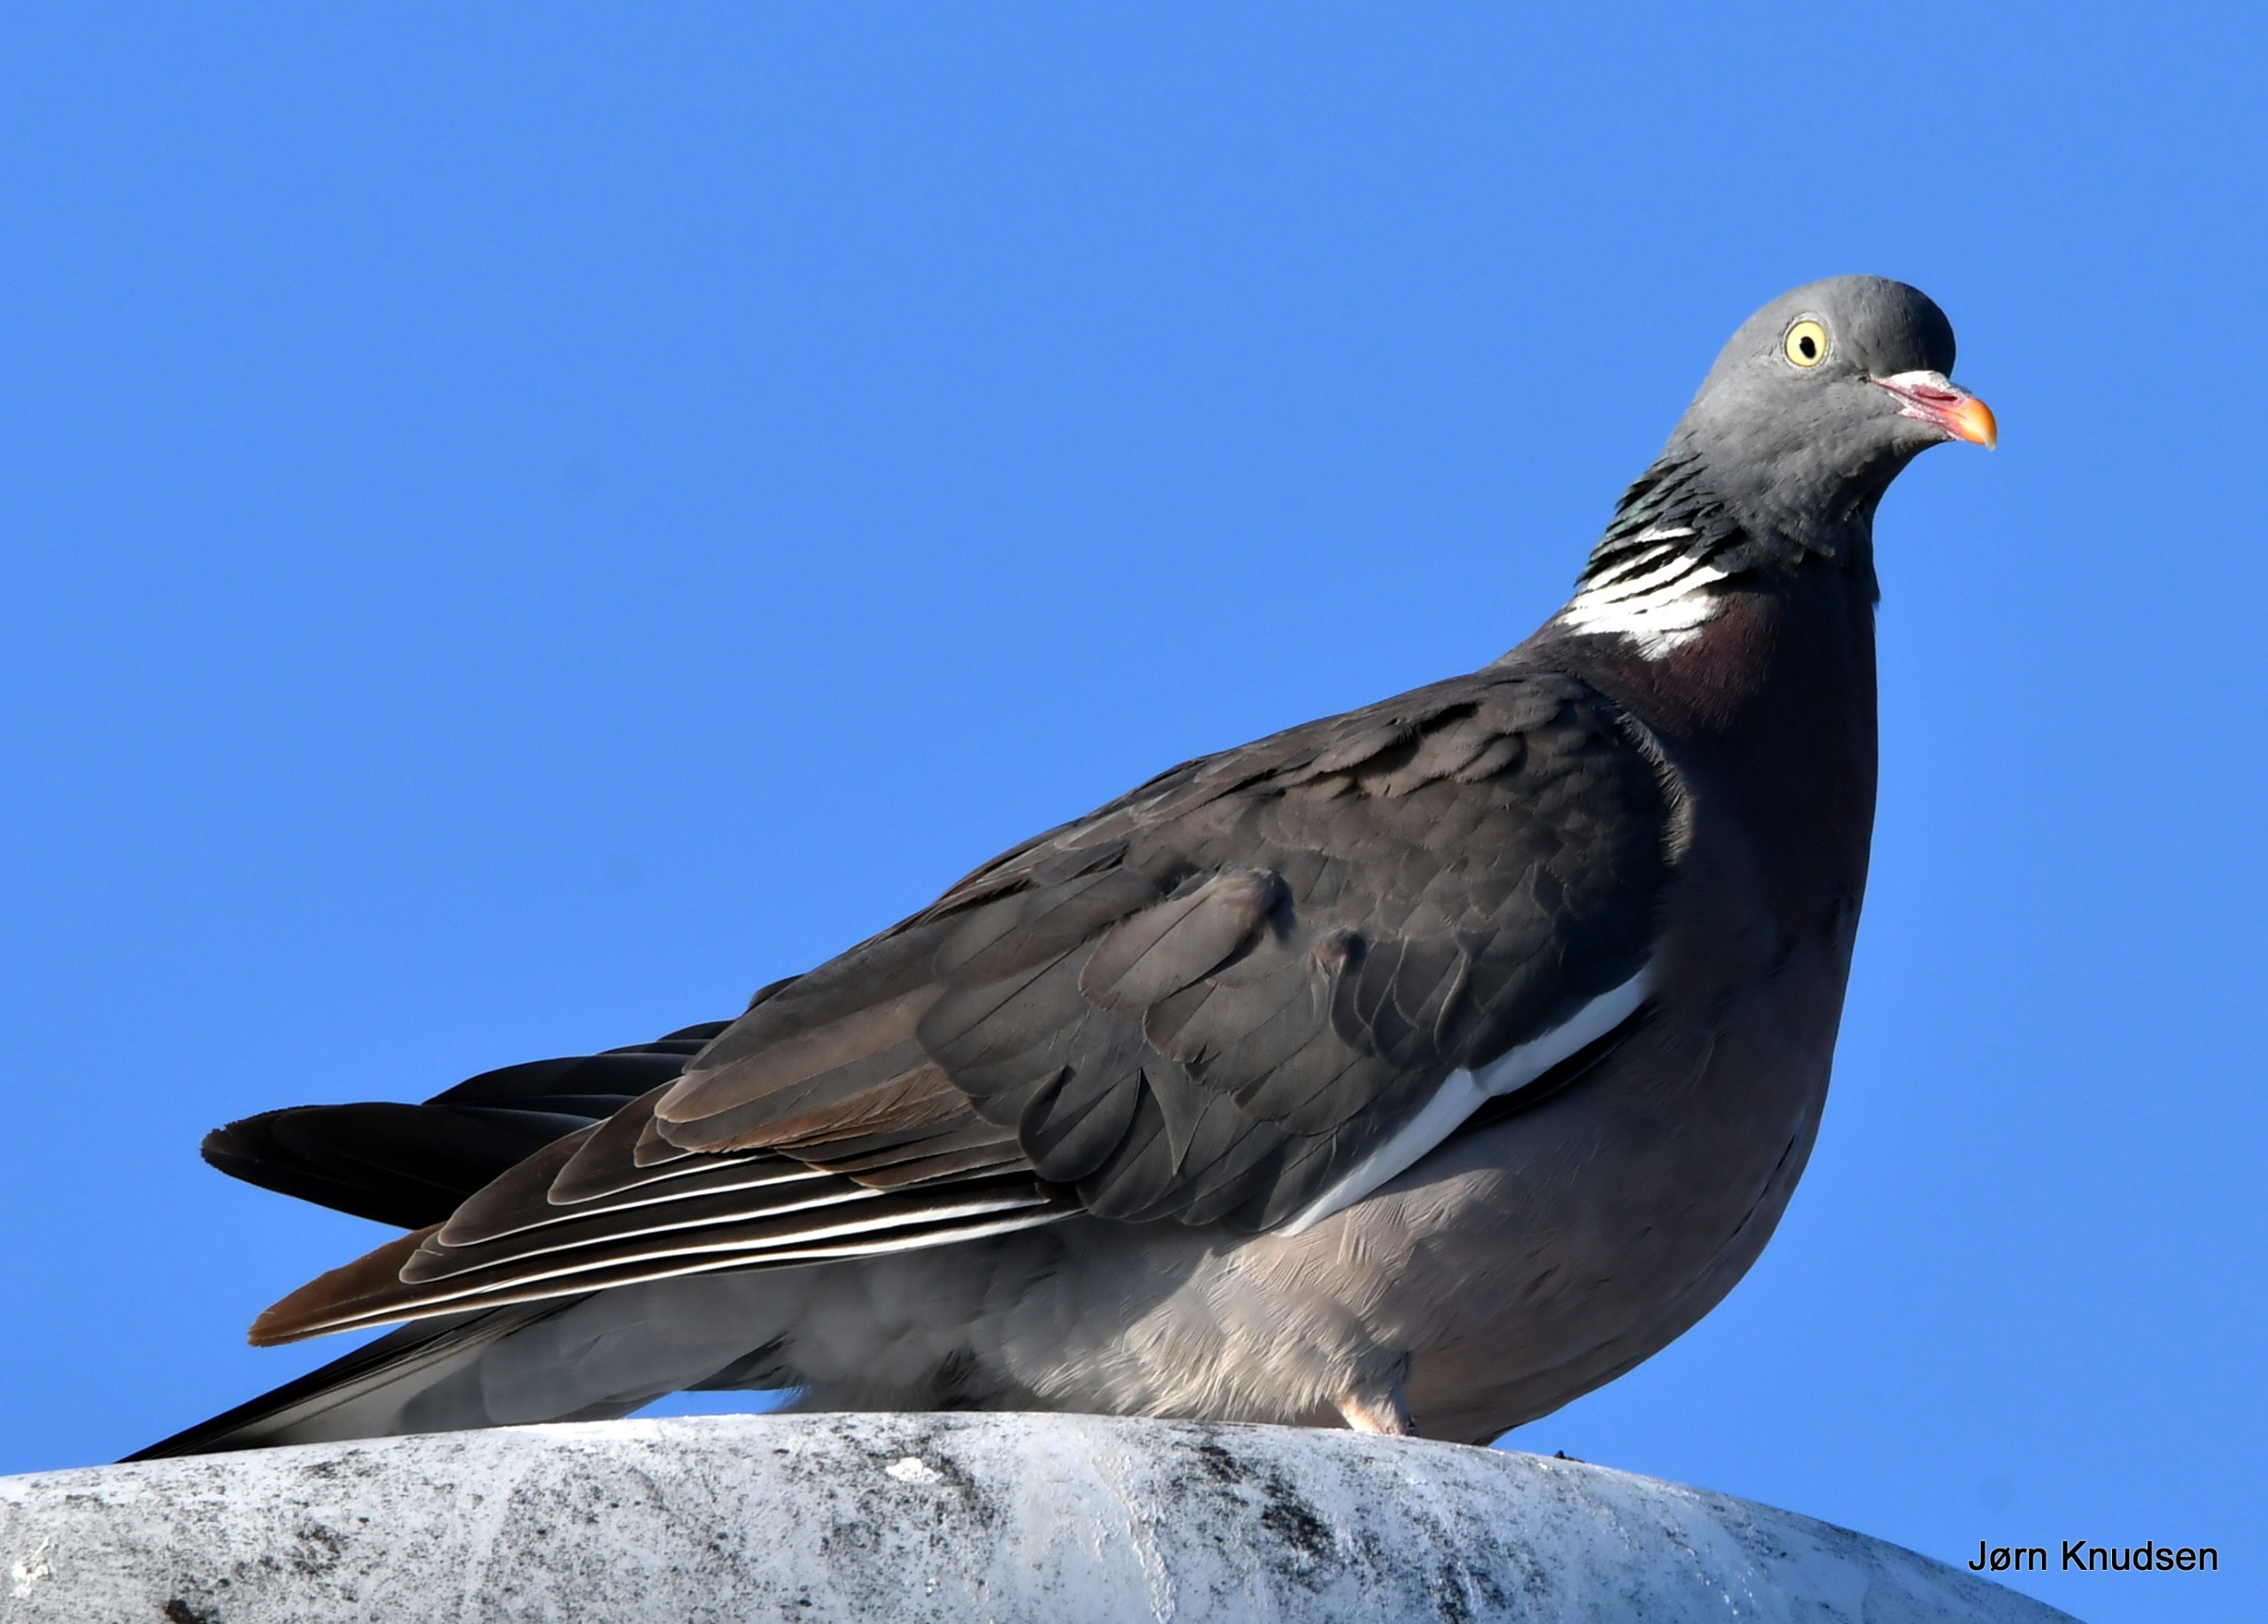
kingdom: Animalia
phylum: Chordata
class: Aves
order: Columbiformes
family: Columbidae
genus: Columba
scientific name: Columba palumbus
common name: Ringdue
